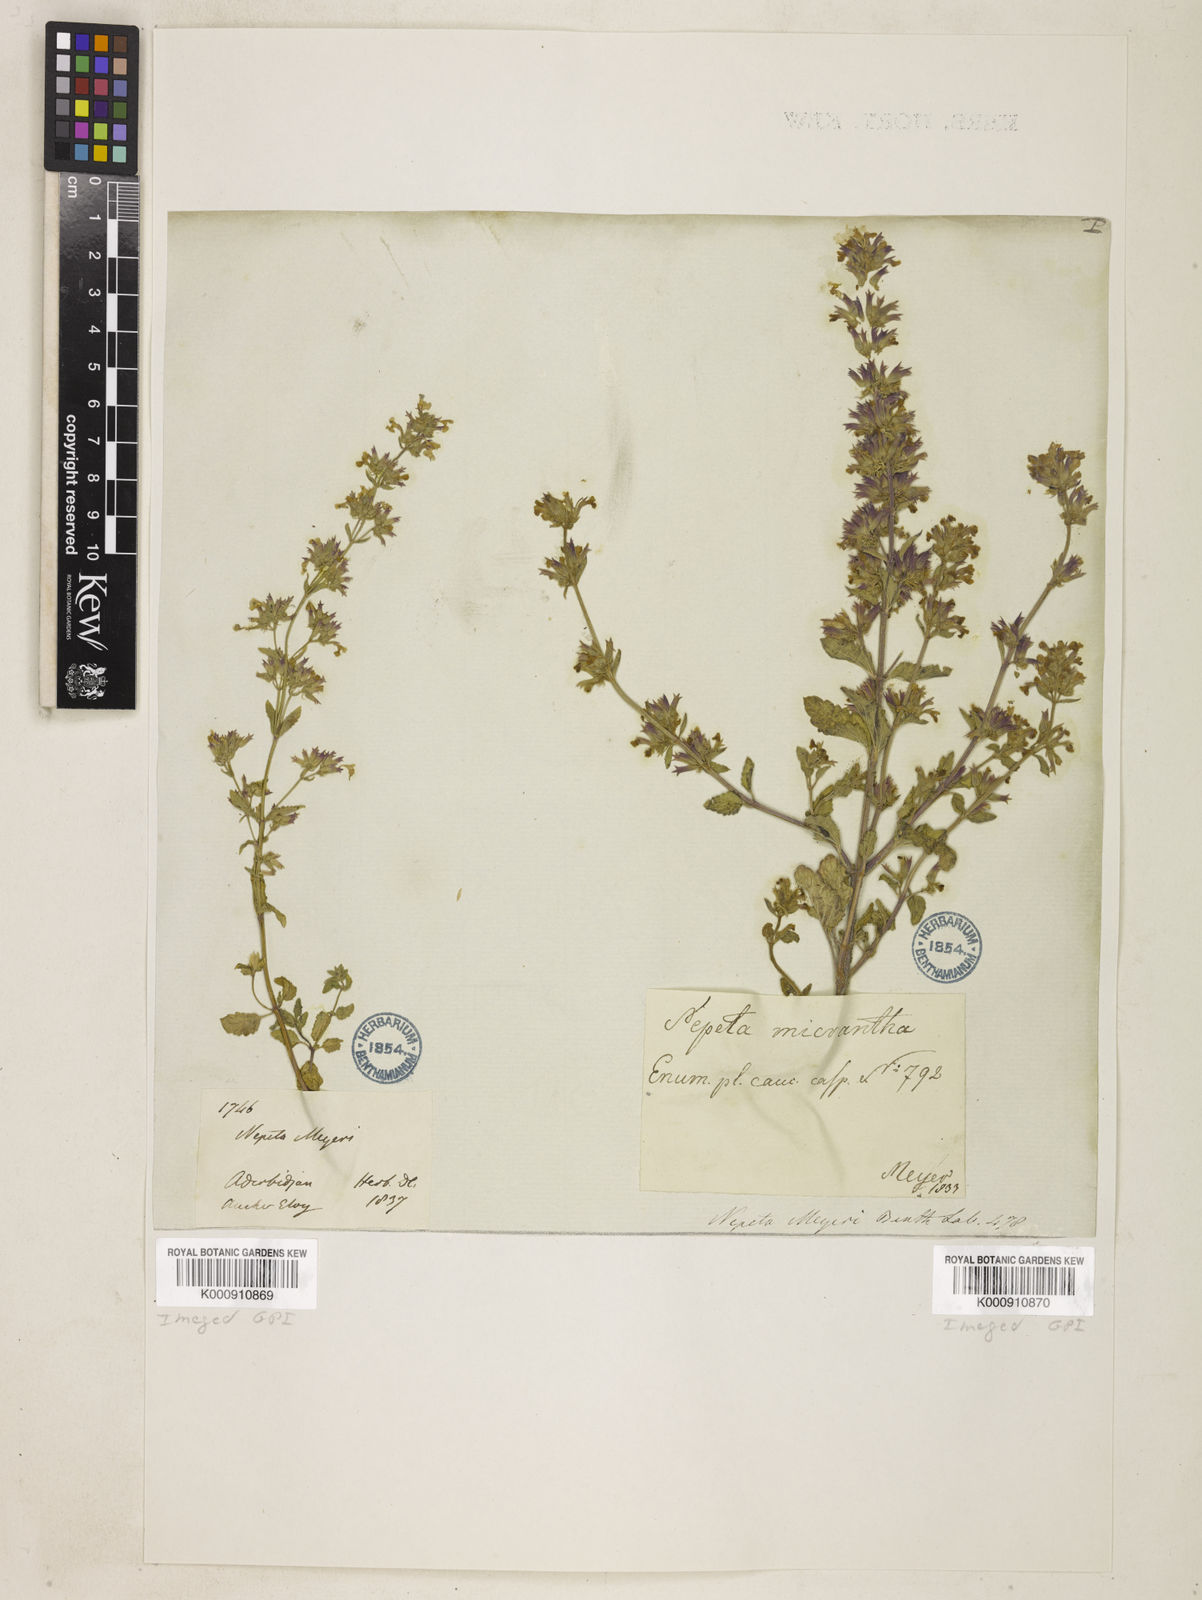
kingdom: Plantae
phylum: Tracheophyta
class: Magnoliopsida
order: Lamiales
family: Lamiaceae
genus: Nepeta
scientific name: Nepeta meyeri
